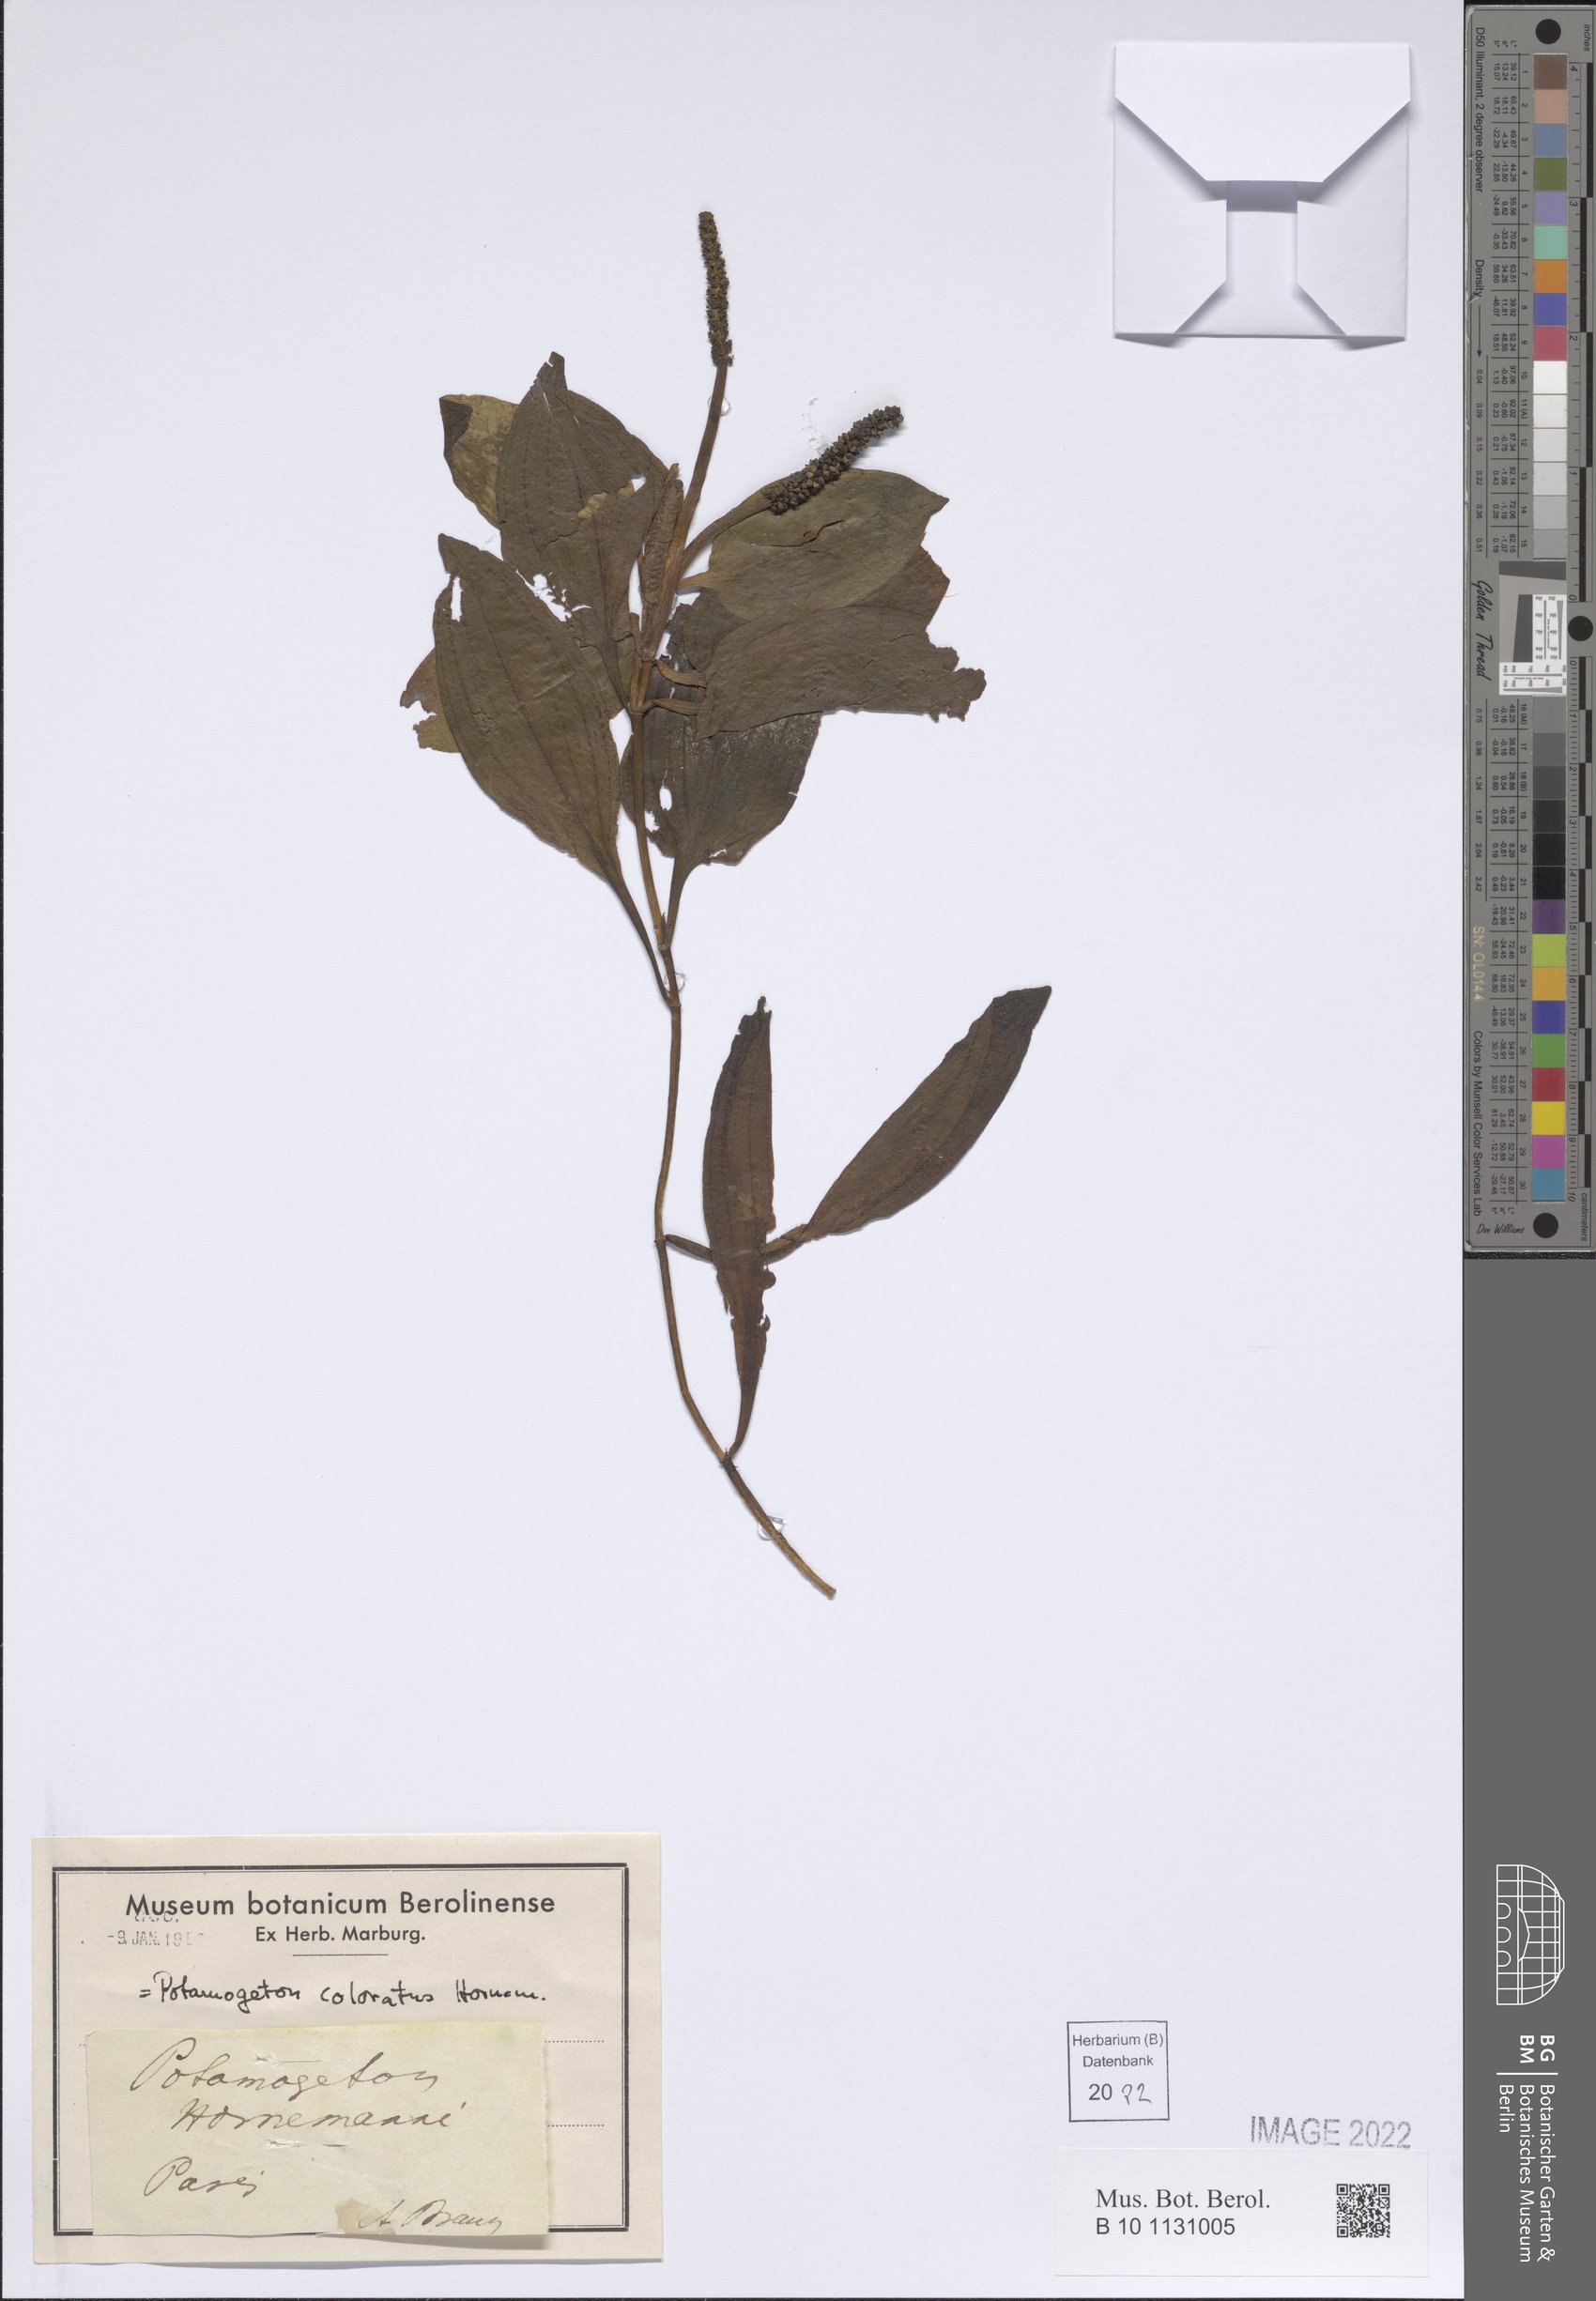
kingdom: Plantae
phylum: Tracheophyta
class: Liliopsida
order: Alismatales
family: Potamogetonaceae
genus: Potamogeton
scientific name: Potamogeton coloratus
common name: Fen pondweed
